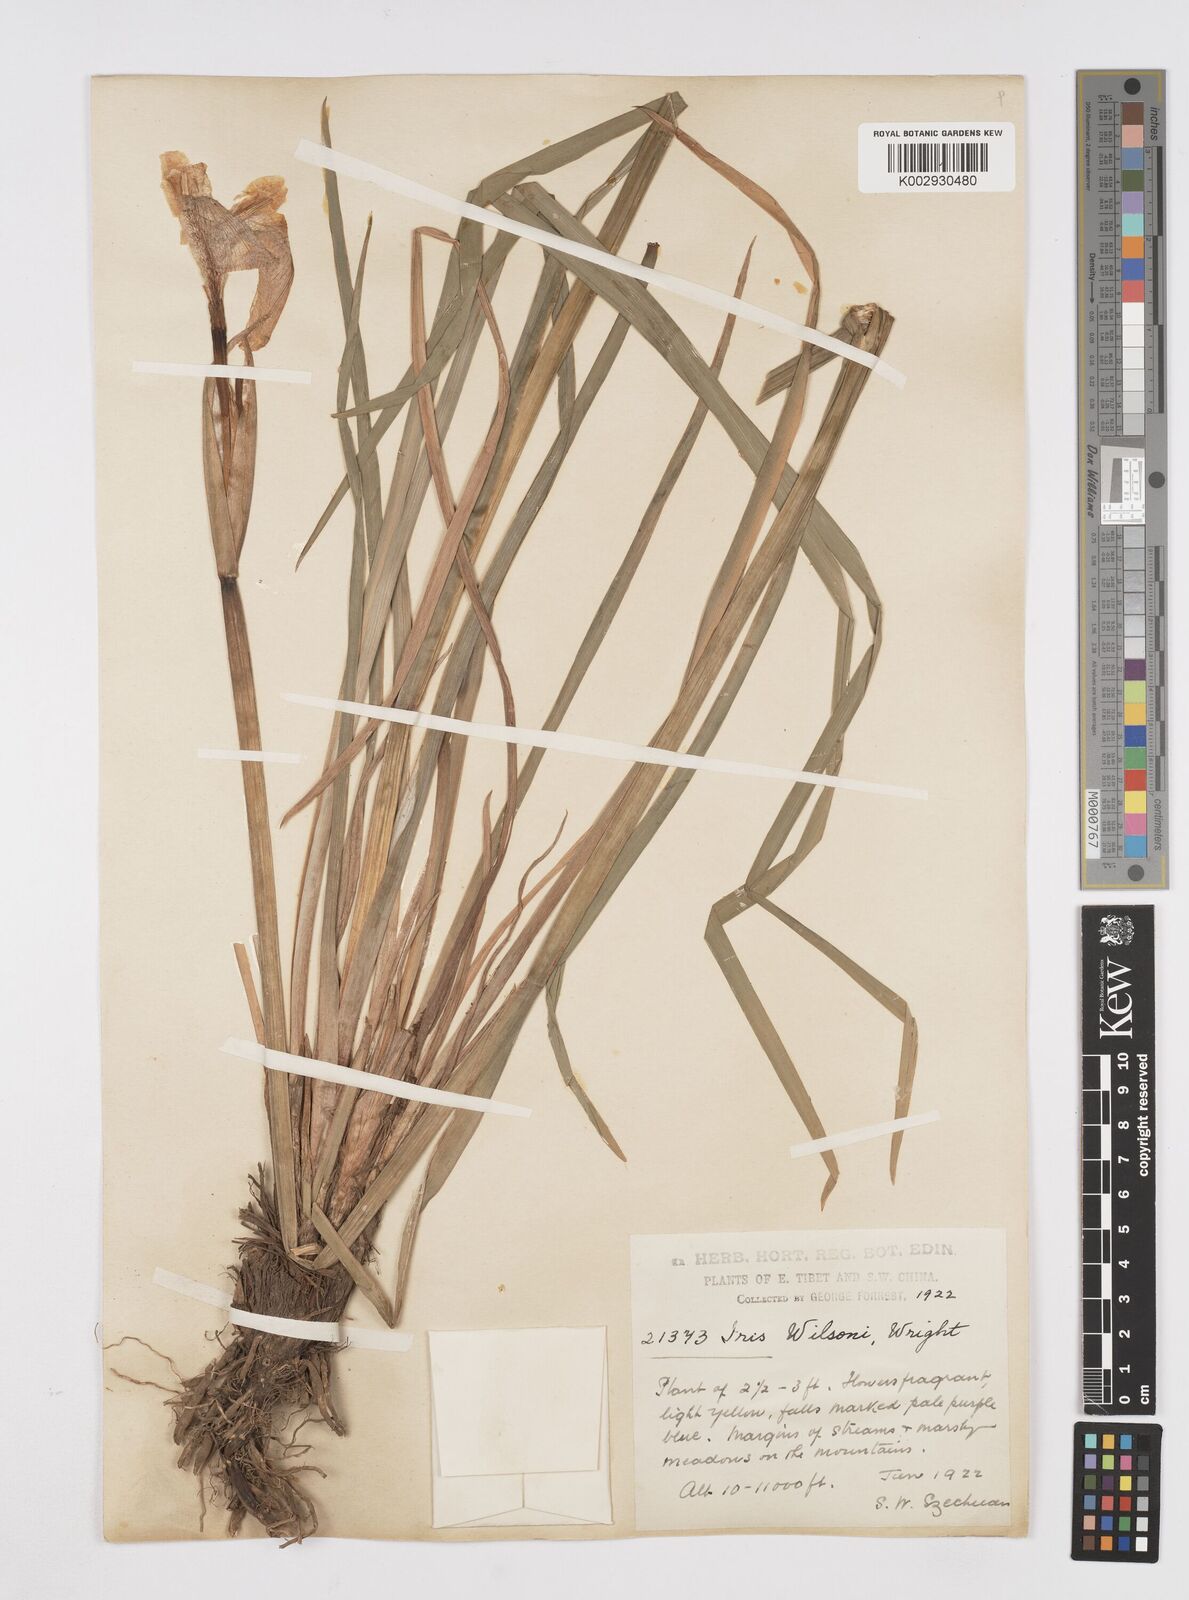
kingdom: Plantae
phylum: Tracheophyta
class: Liliopsida
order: Asparagales
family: Iridaceae
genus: Iris
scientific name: Iris wilsonii
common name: Yellow-flower iris
